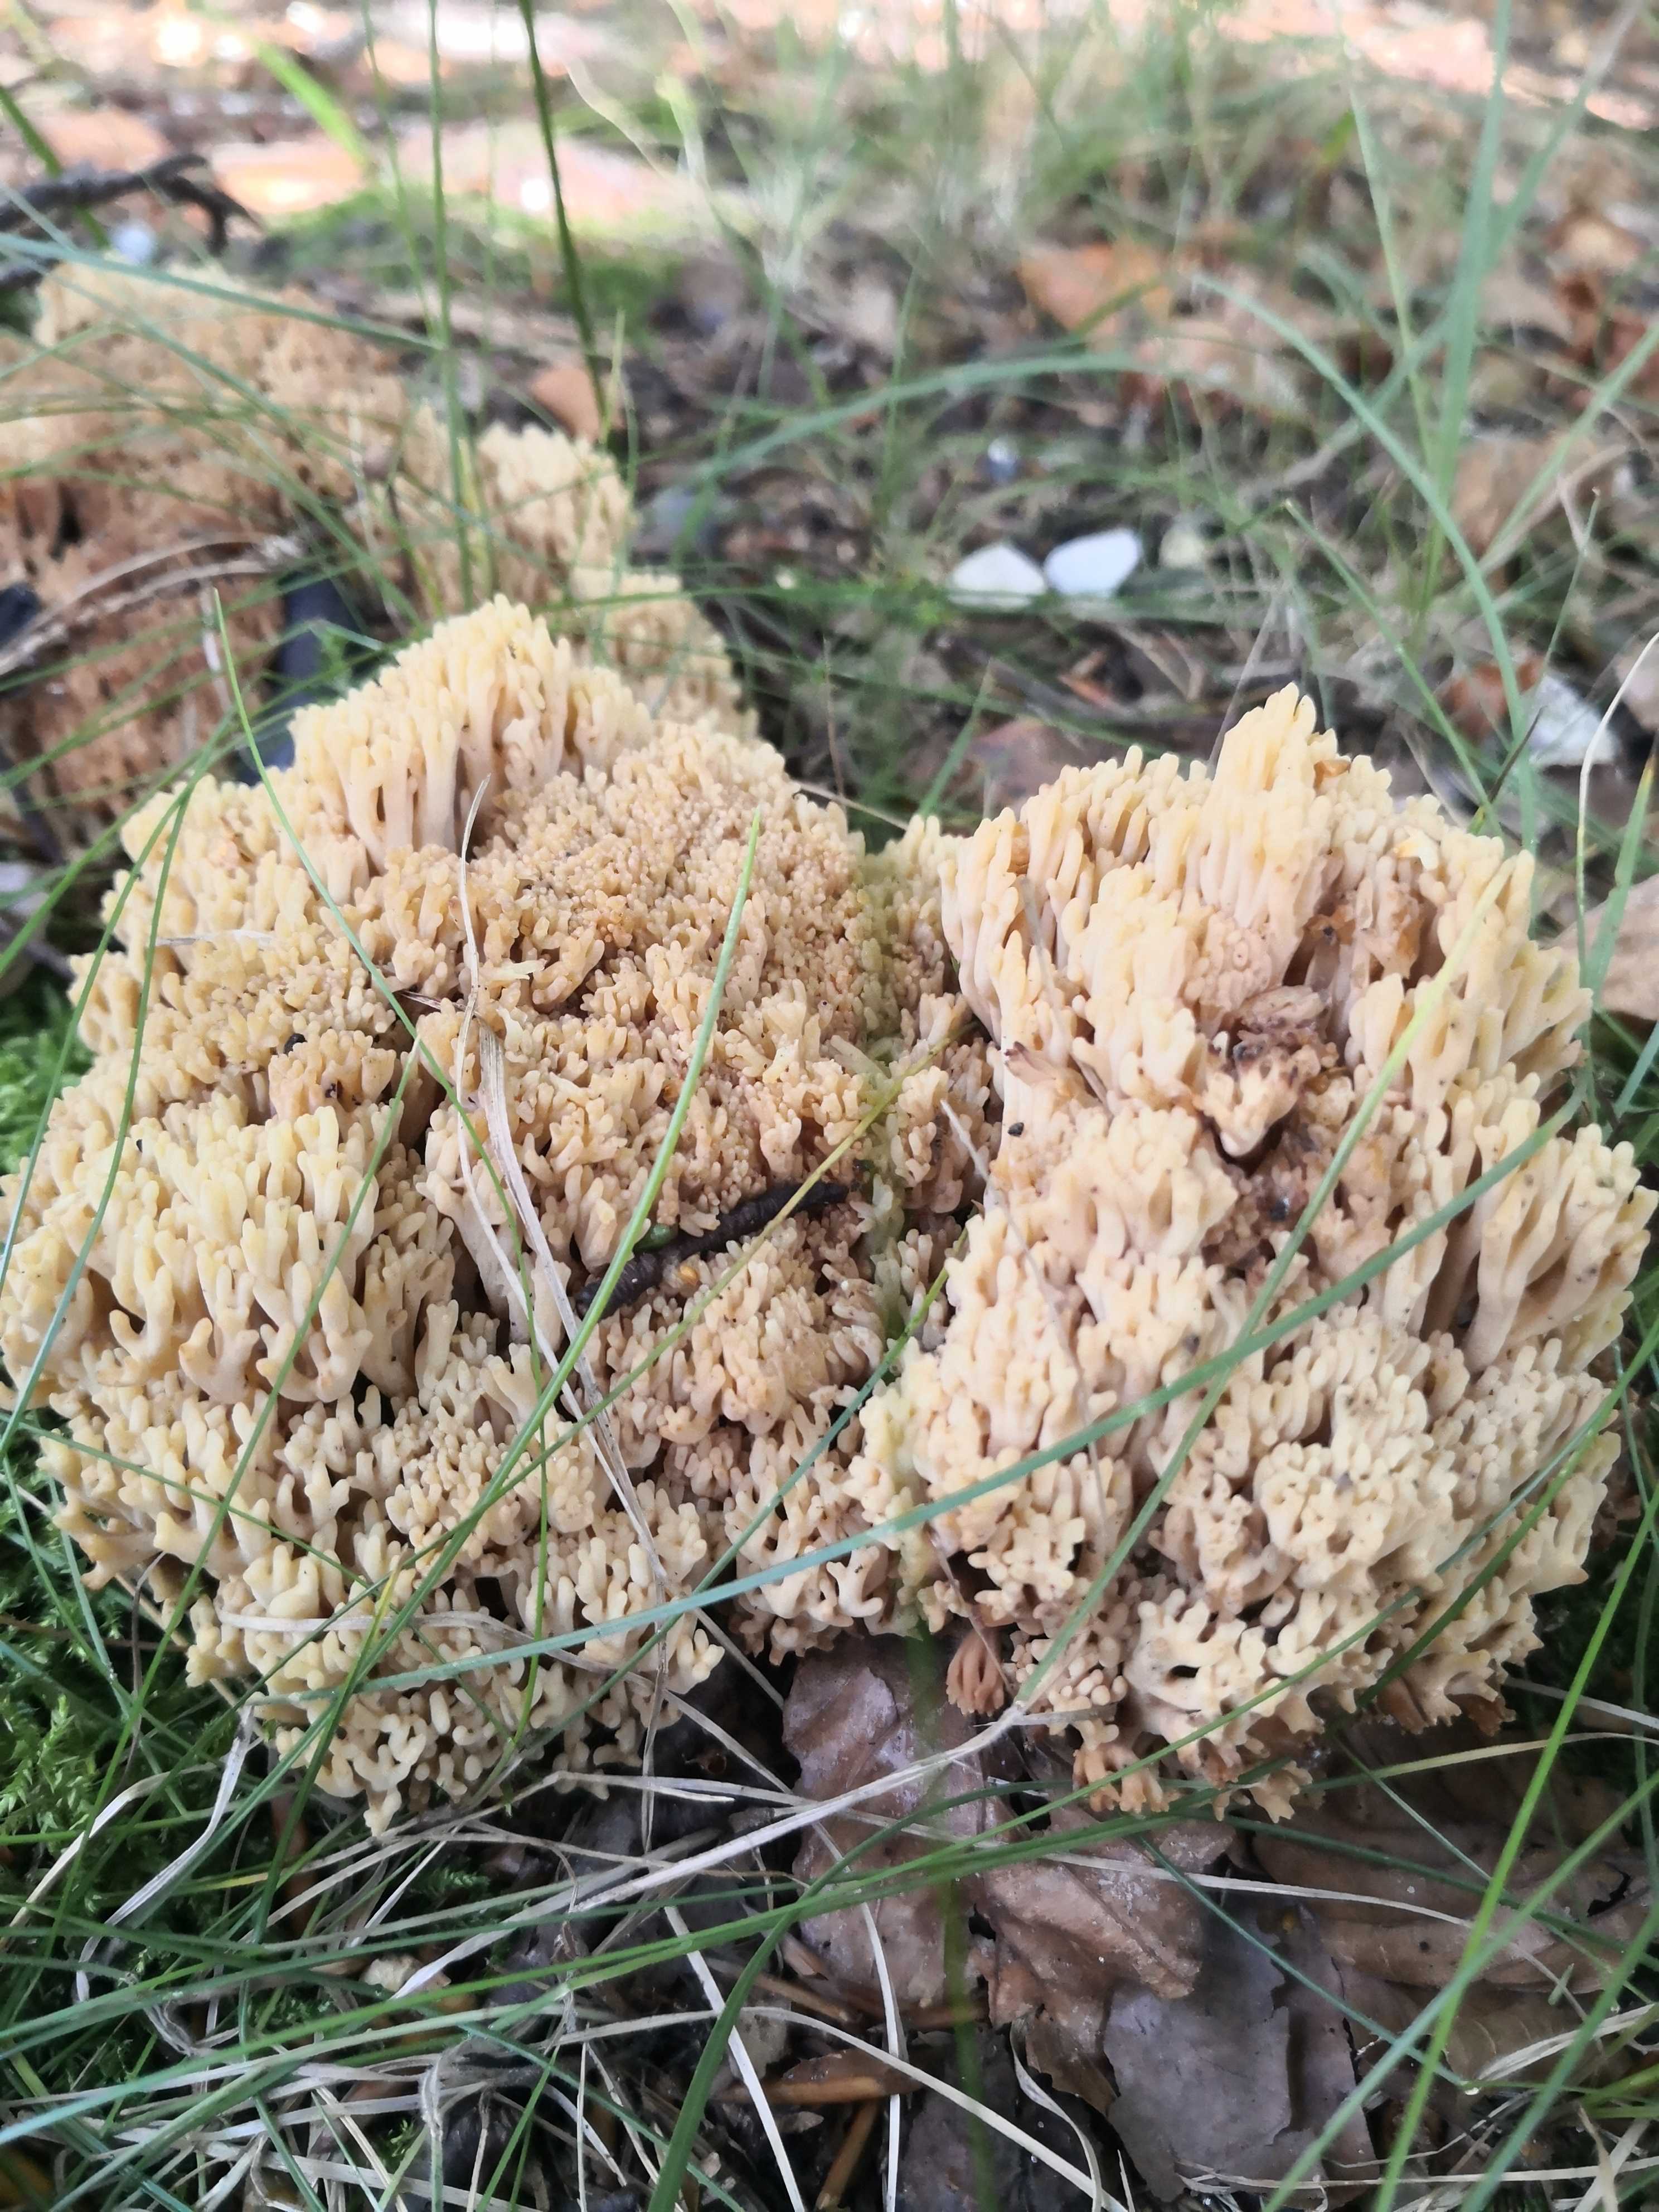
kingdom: Fungi
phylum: Basidiomycota
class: Agaricomycetes
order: Gomphales
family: Gomphaceae
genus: Ramaria
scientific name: Ramaria
